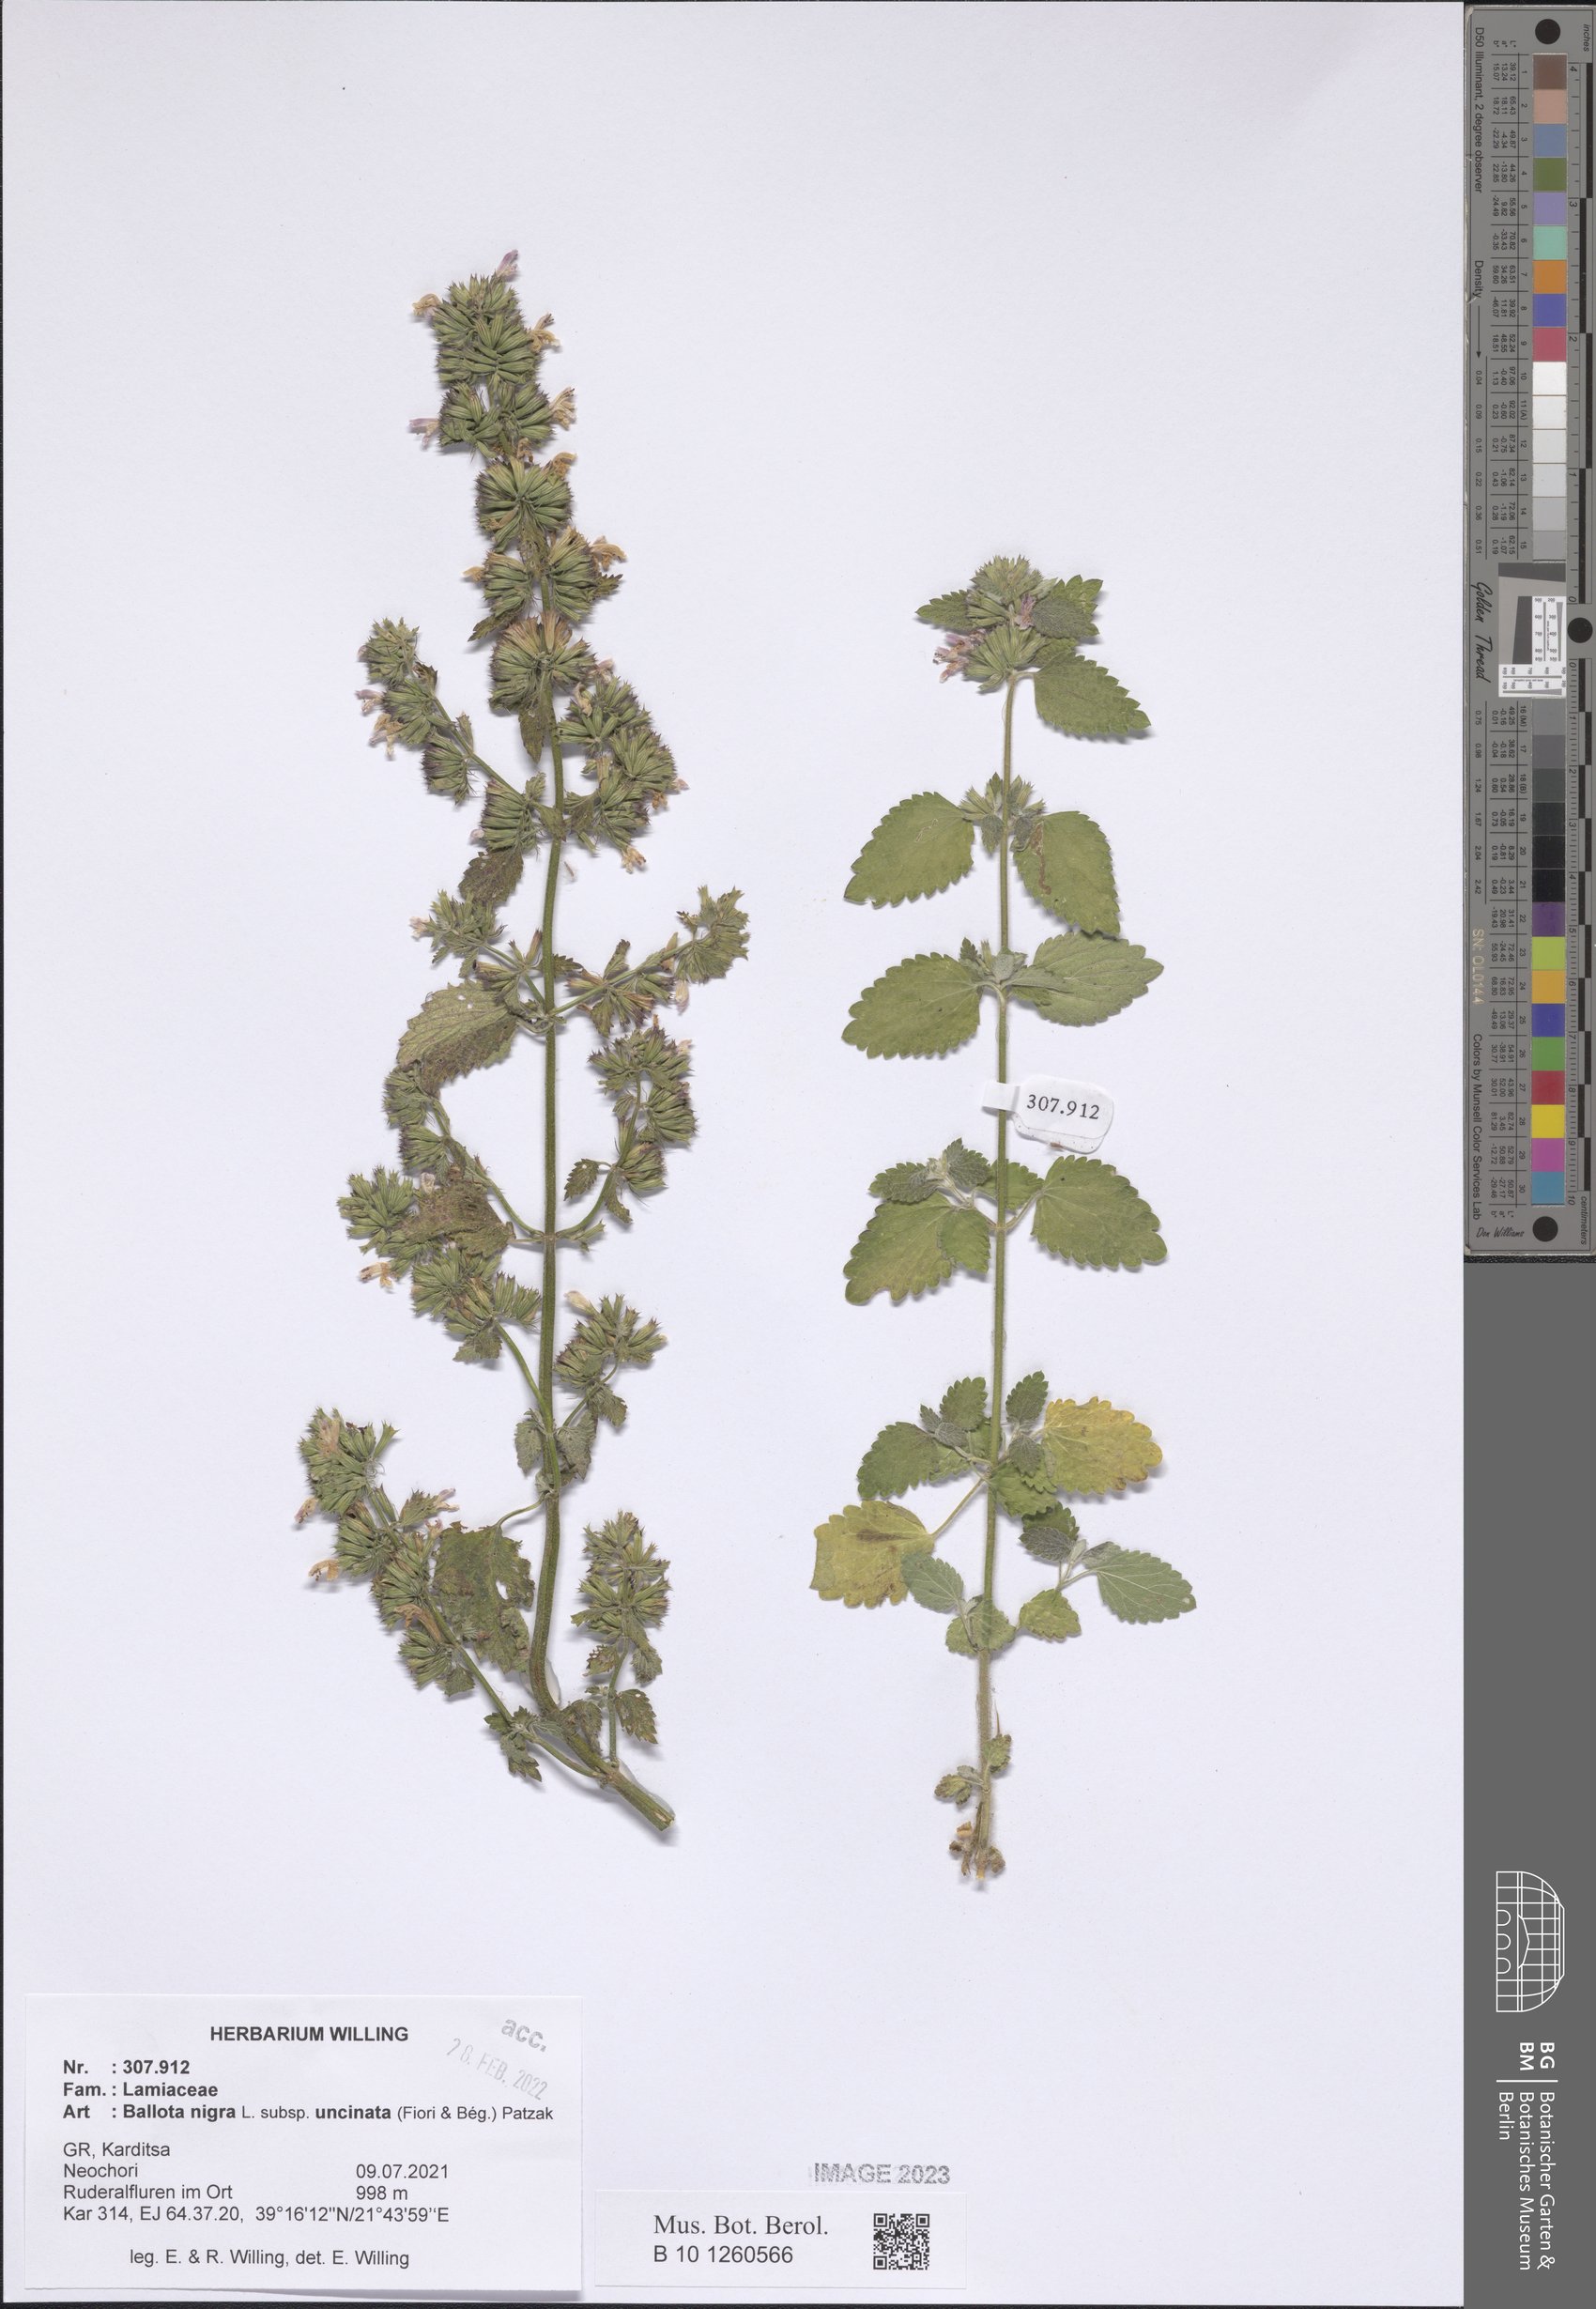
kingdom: Plantae
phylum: Tracheophyta
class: Magnoliopsida
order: Lamiales
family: Lamiaceae
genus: Ballota
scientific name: Ballota nigra
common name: Black horehound
